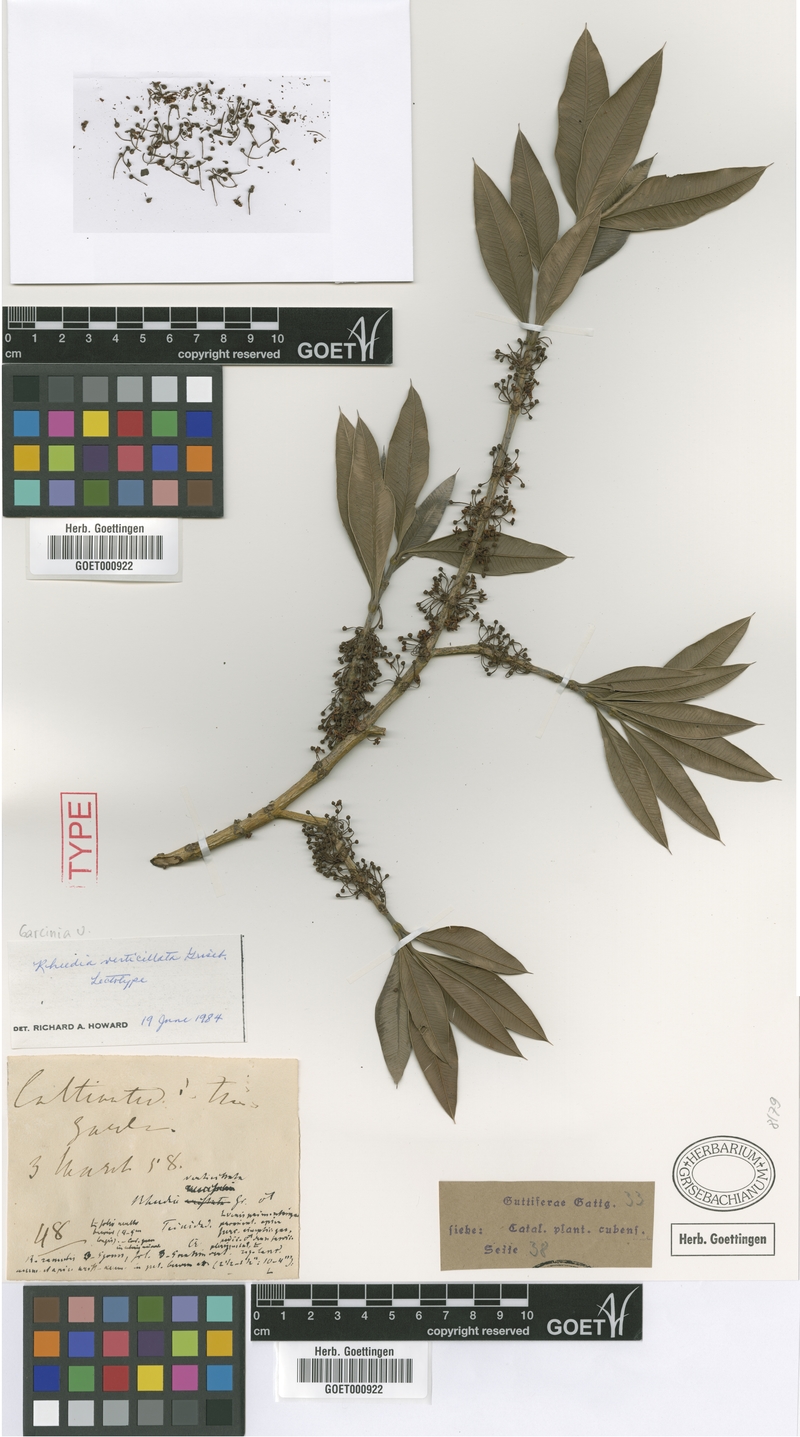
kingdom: Plantae
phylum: Tracheophyta
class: Magnoliopsida
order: Malpighiales
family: Clusiaceae
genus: Garcinia
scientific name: Garcinia verticillata
